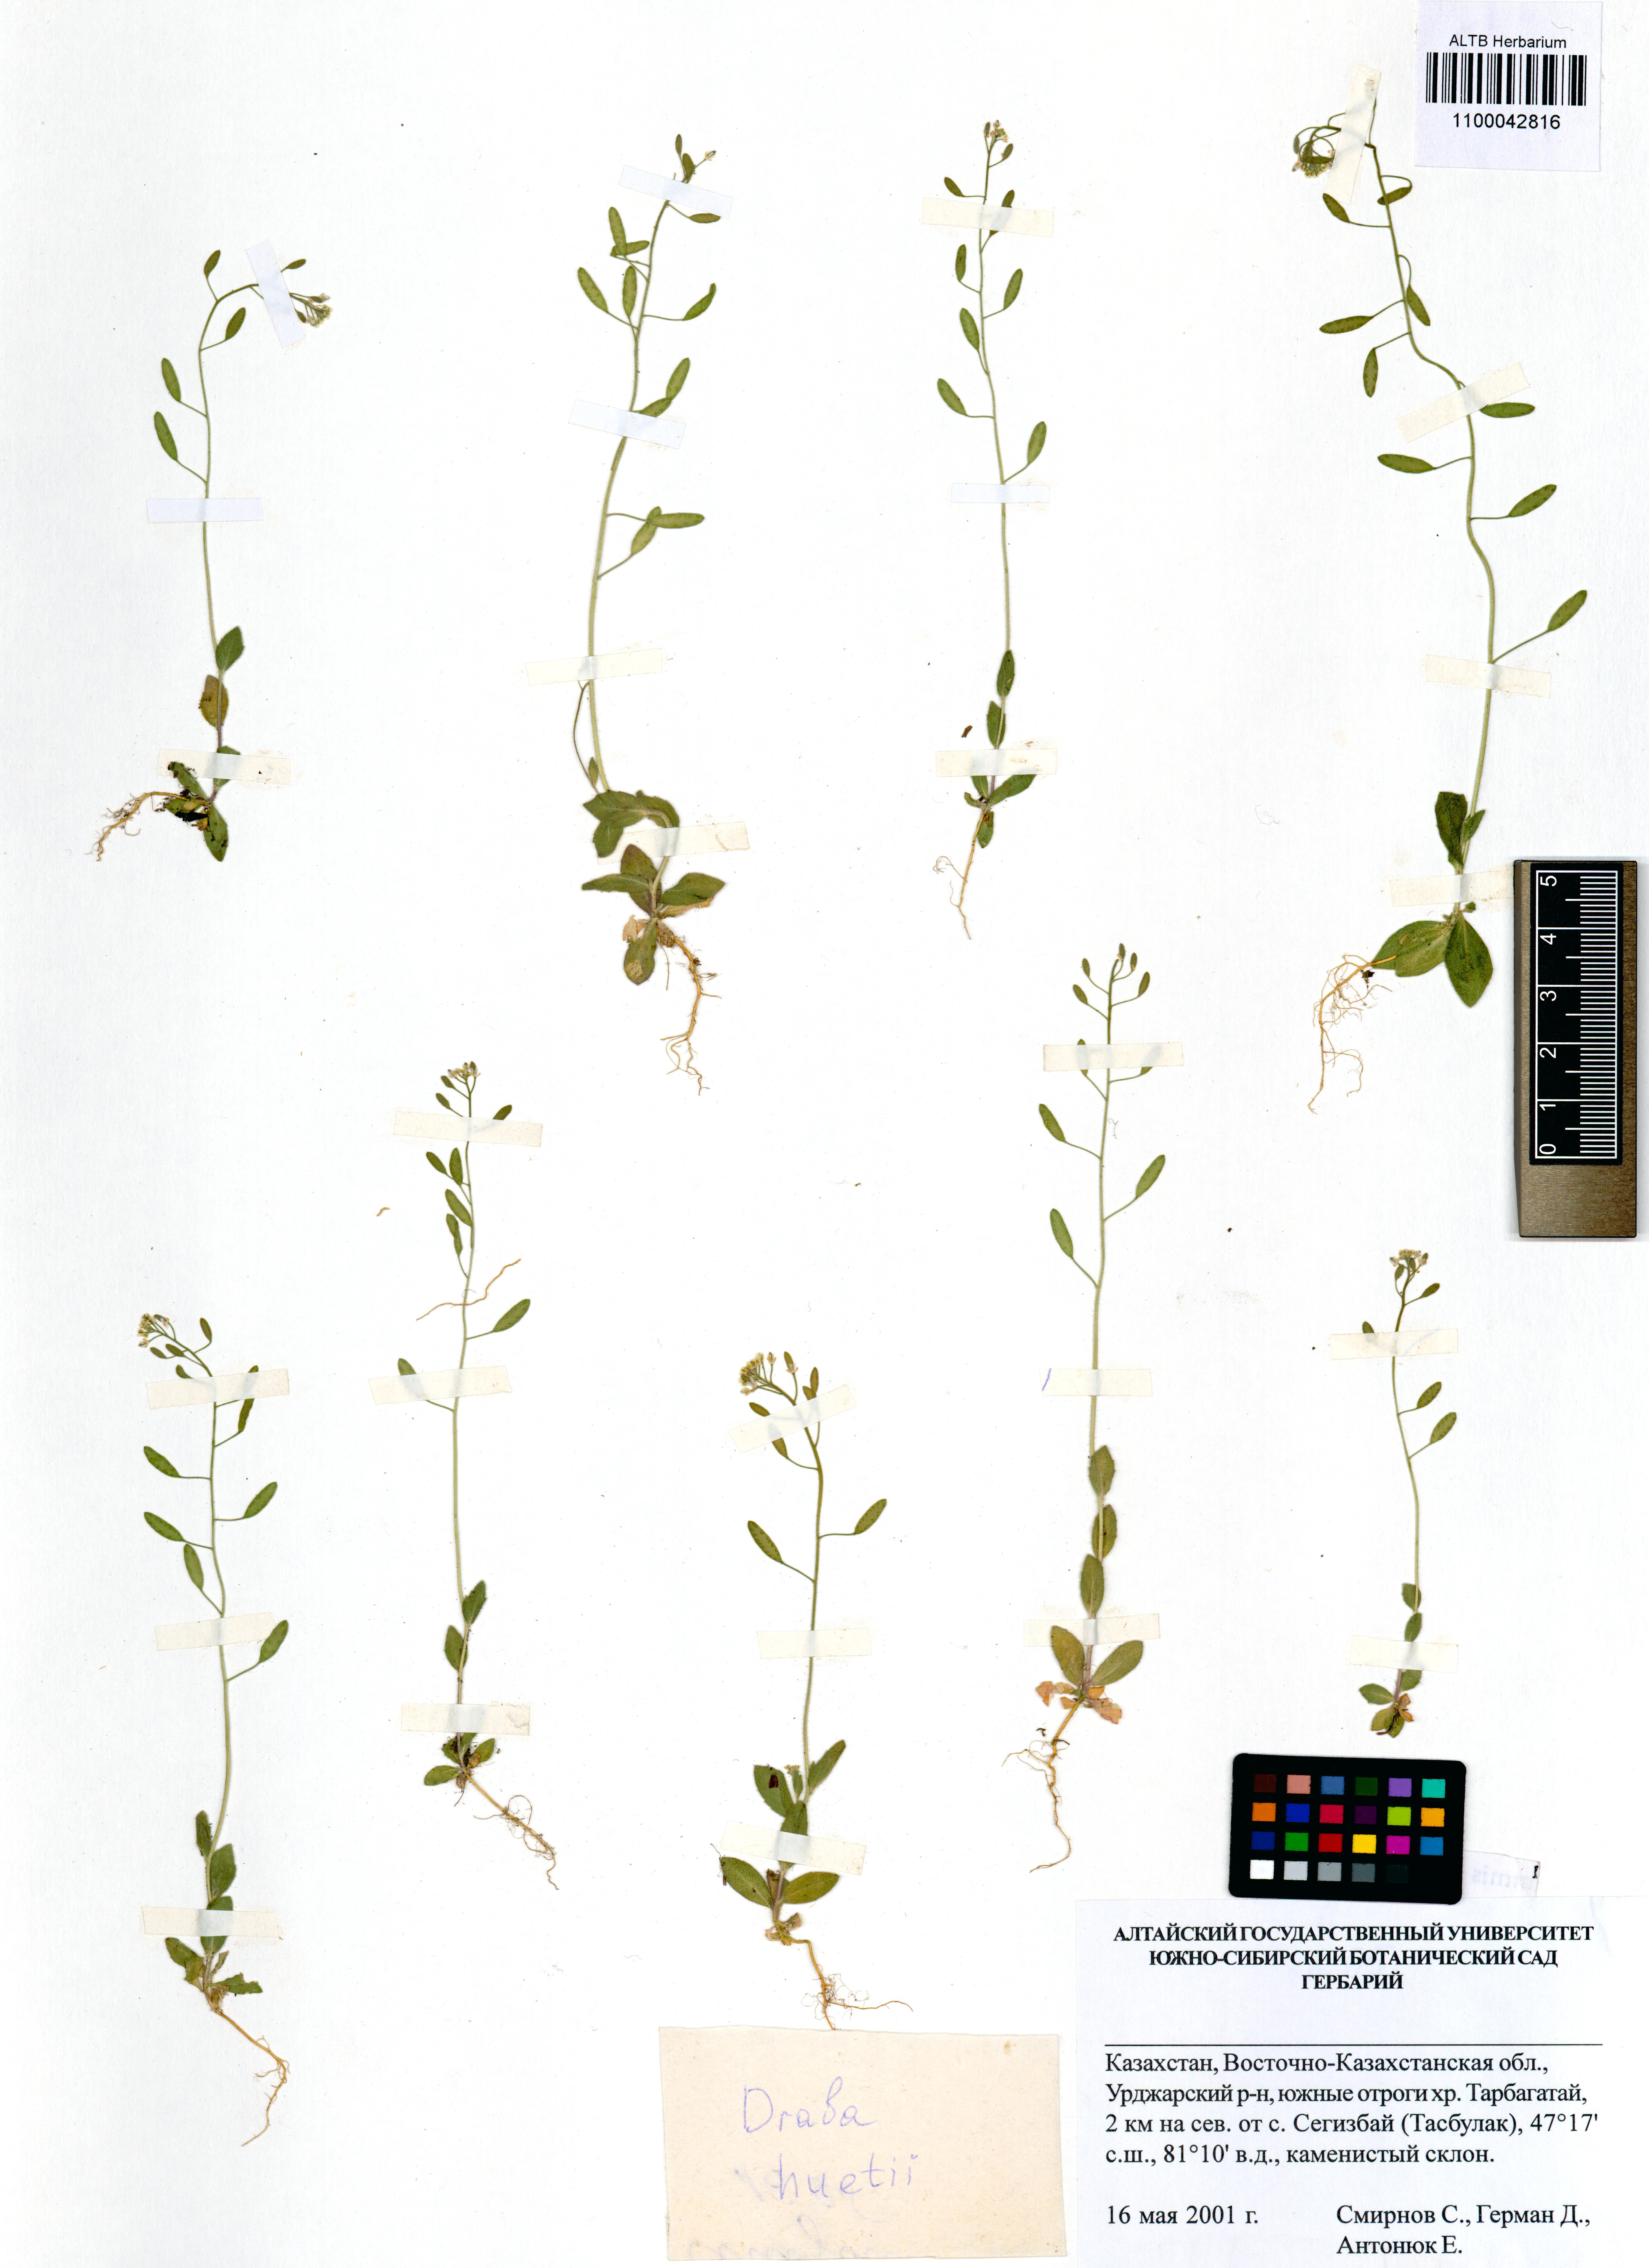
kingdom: Plantae
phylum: Tracheophyta
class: Magnoliopsida
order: Brassicales
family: Brassicaceae
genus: Draba
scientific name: Draba huetii
